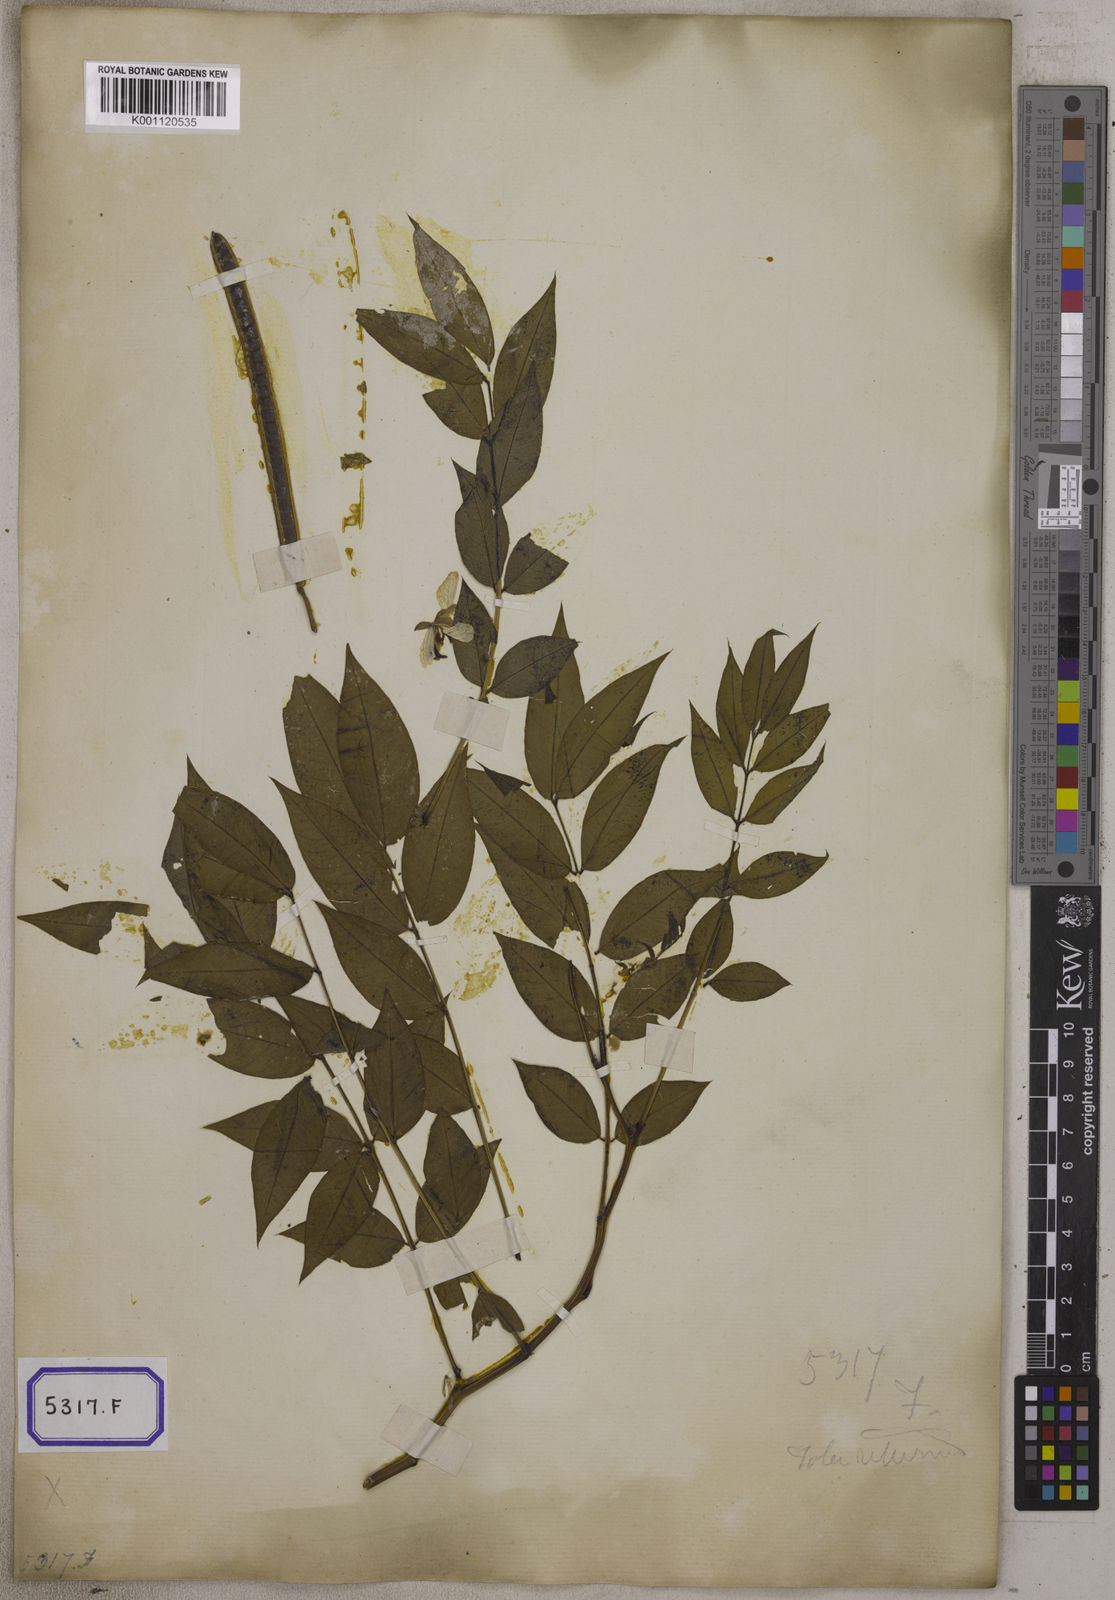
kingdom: Plantae
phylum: Tracheophyta
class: Magnoliopsida
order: Fabales
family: Fabaceae
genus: Cassia
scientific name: Cassia
